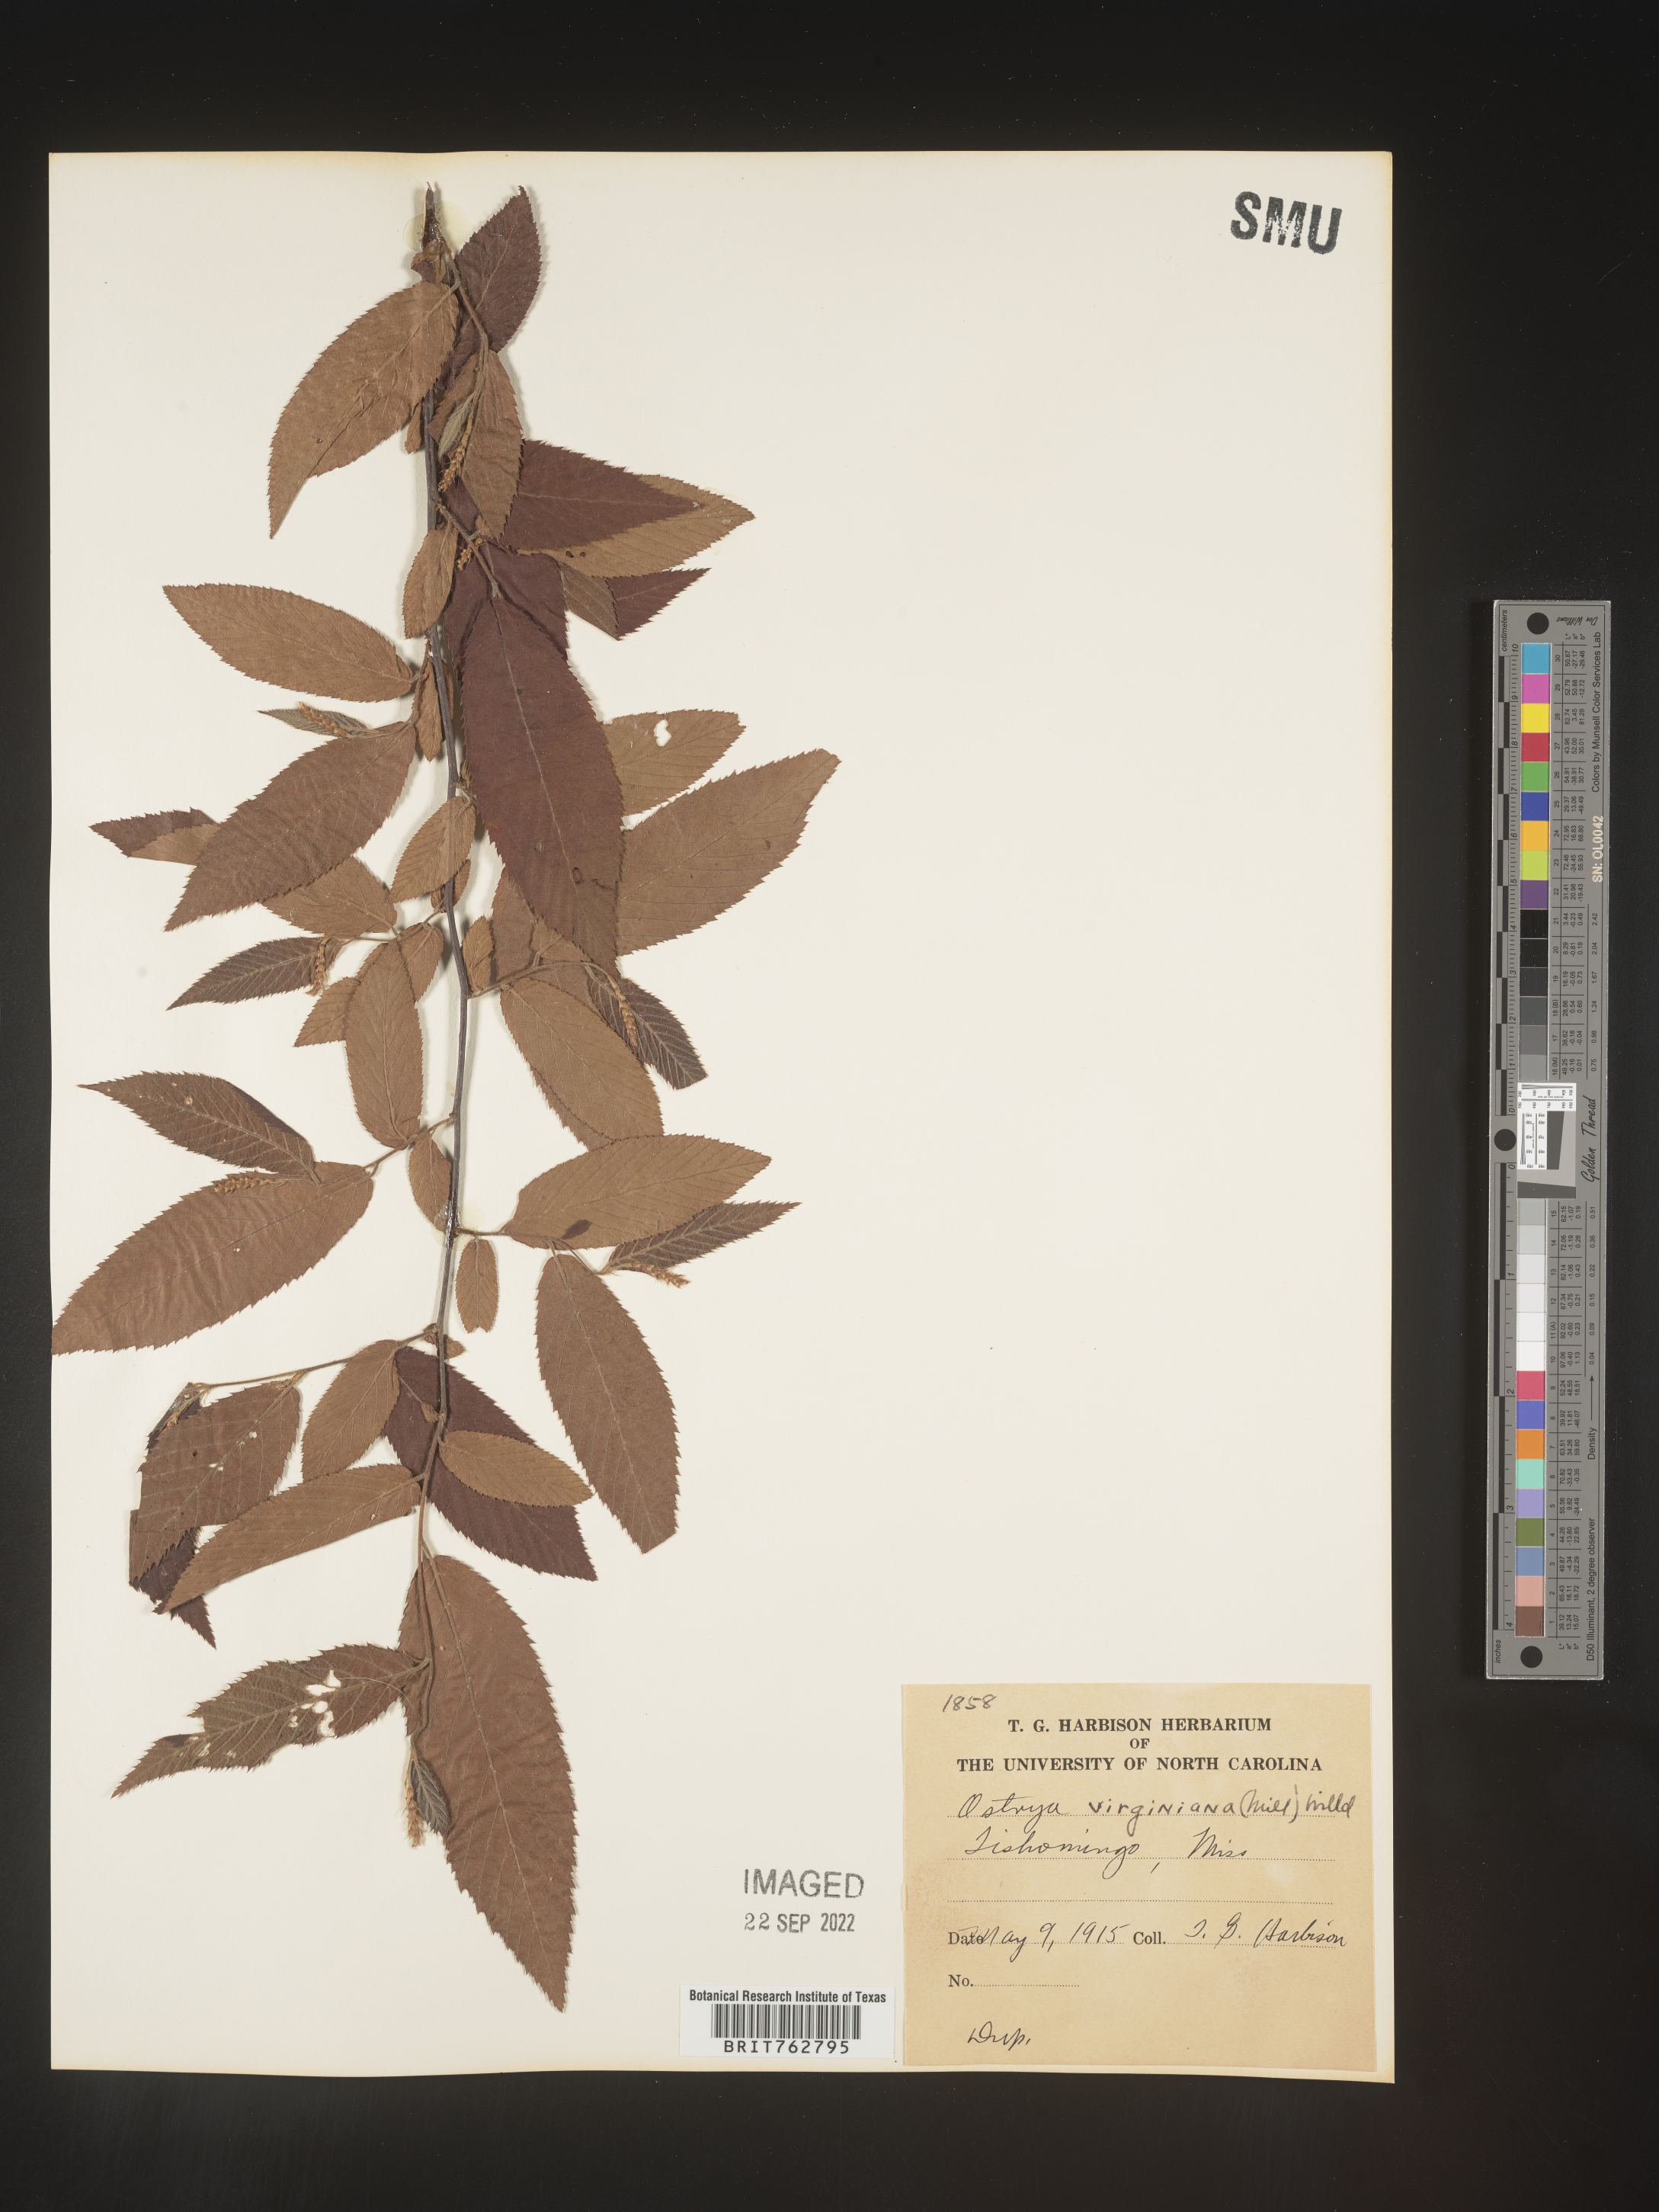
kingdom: Plantae
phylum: Tracheophyta
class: Magnoliopsida
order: Fagales
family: Betulaceae
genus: Ostrya
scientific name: Ostrya virginiana
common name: Ironwood
